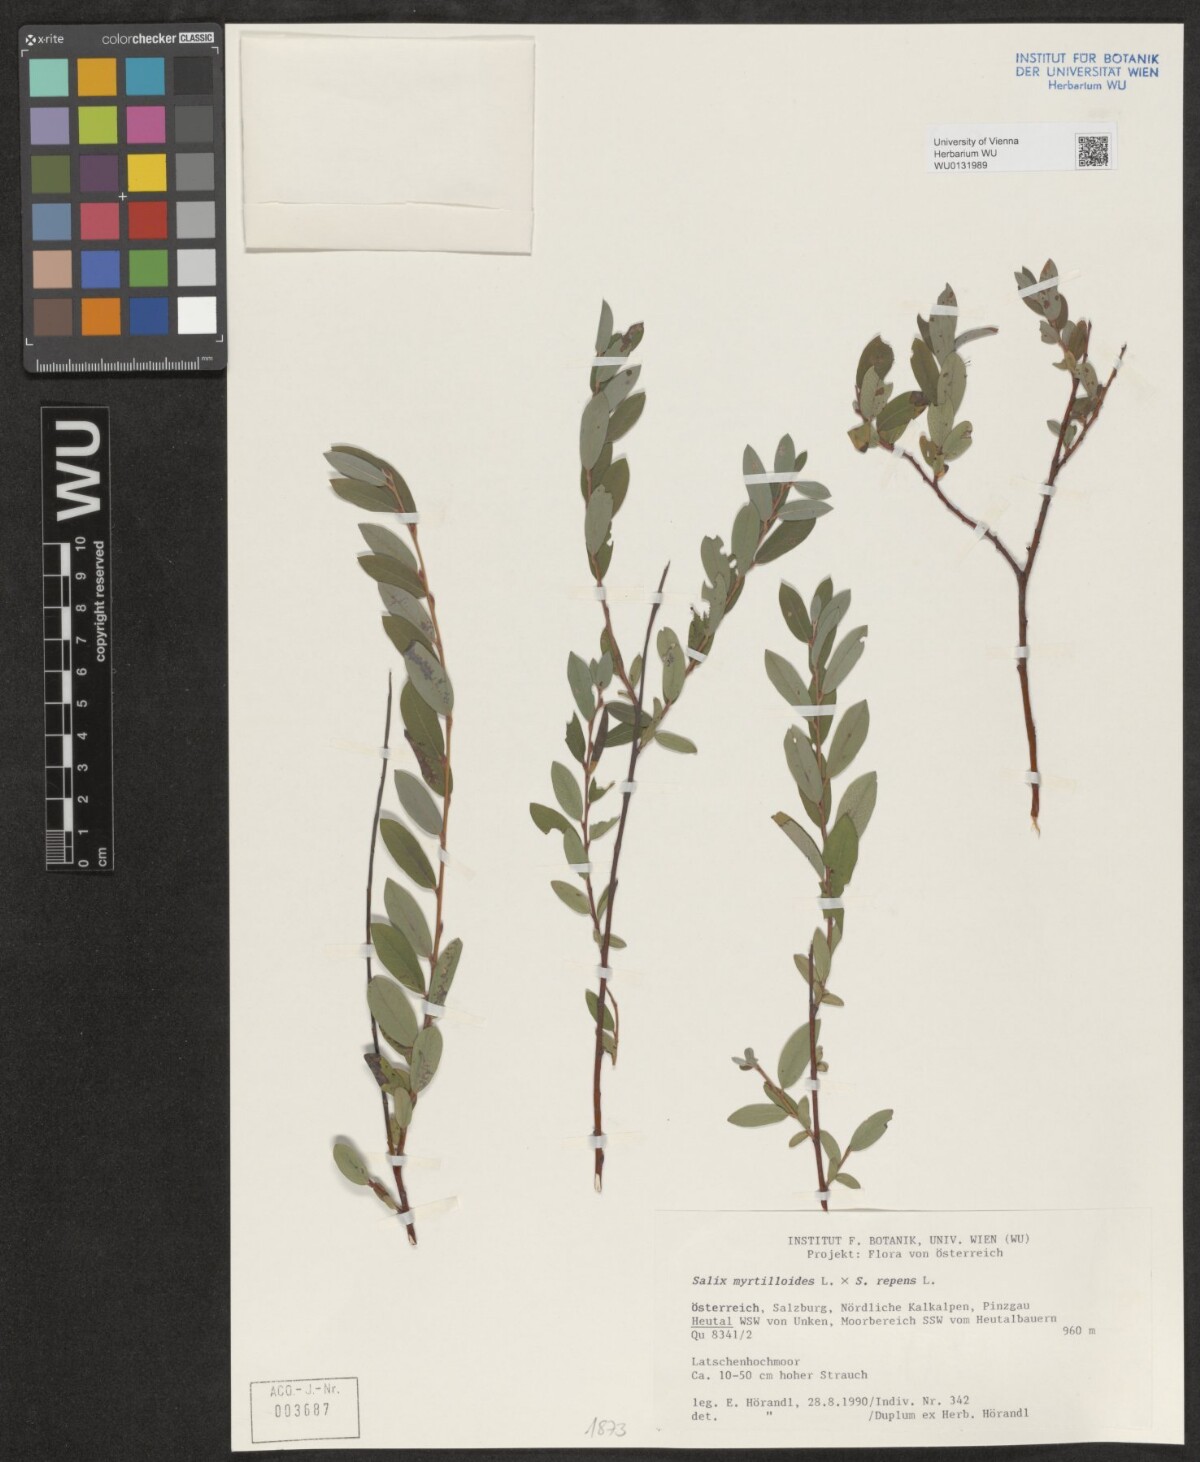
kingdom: Plantae
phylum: Tracheophyta
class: Magnoliopsida
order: Malpighiales
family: Salicaceae
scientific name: Salicaceae
